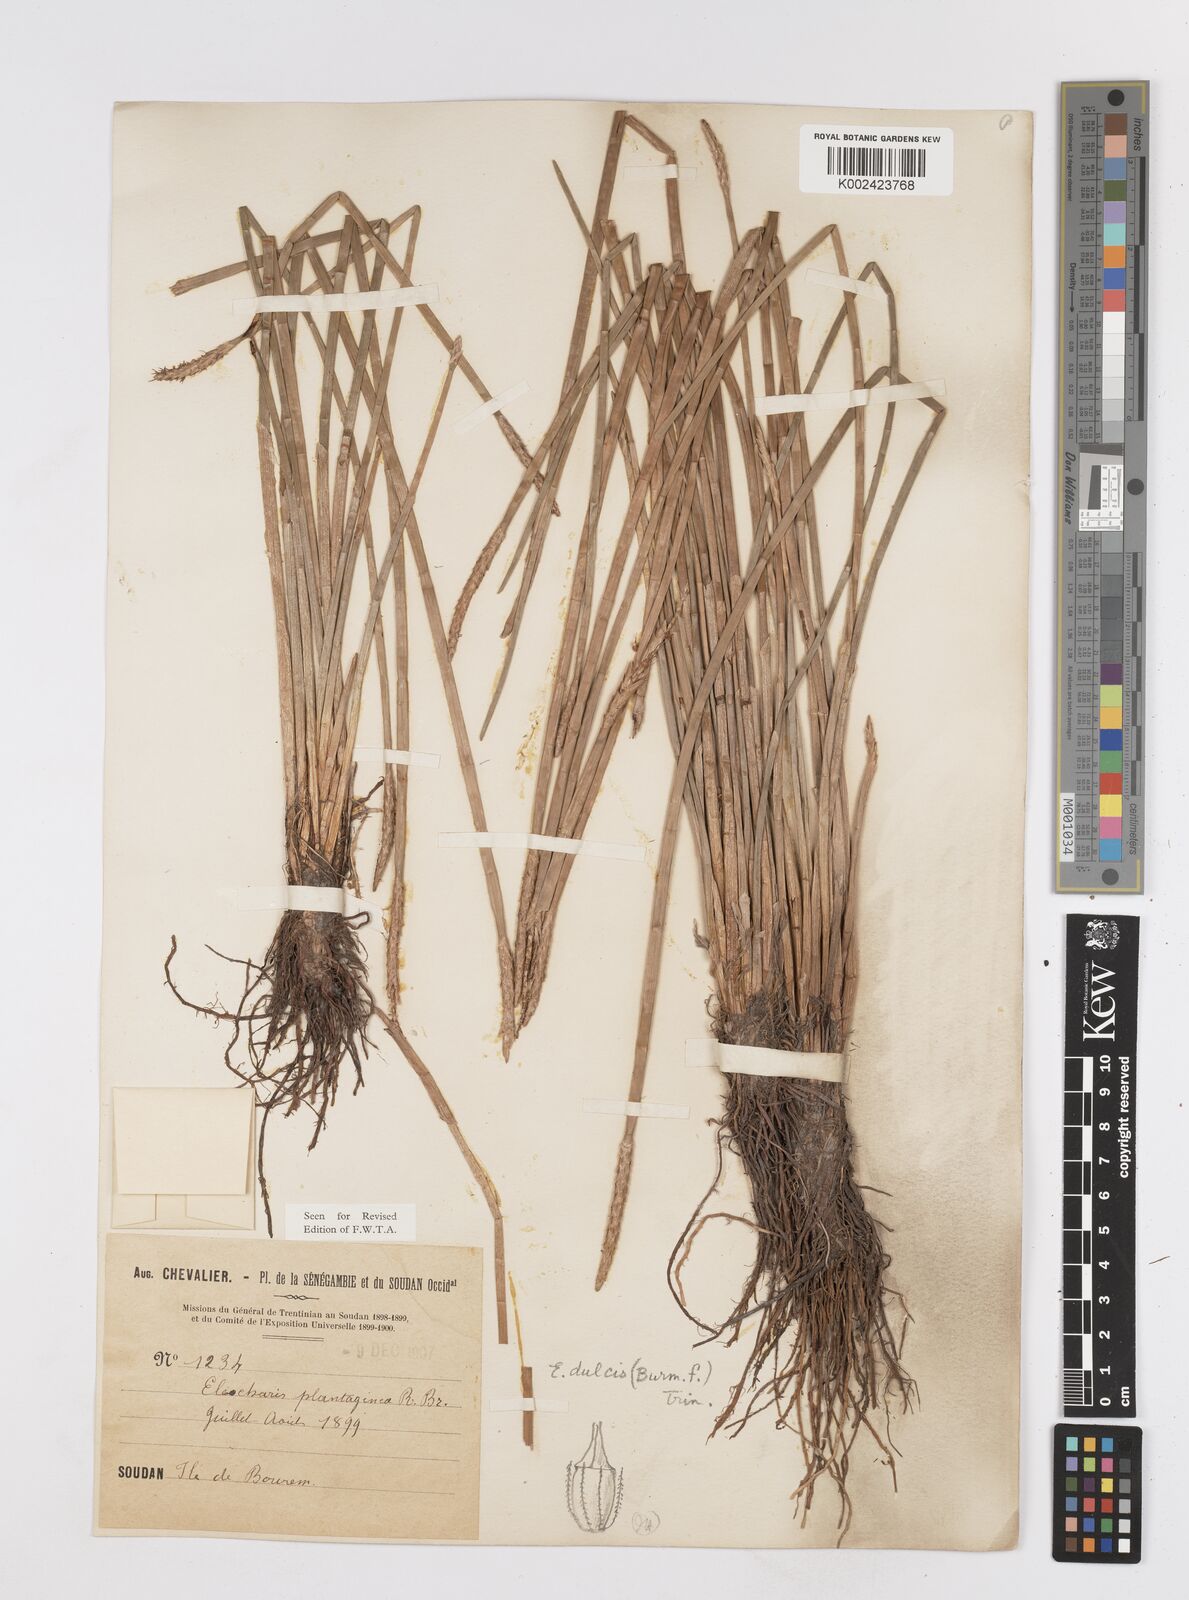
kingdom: Plantae
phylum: Tracheophyta
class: Liliopsida
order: Poales
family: Cyperaceae
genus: Eleocharis
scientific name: Eleocharis dulcis
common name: Chinese water chestnut
